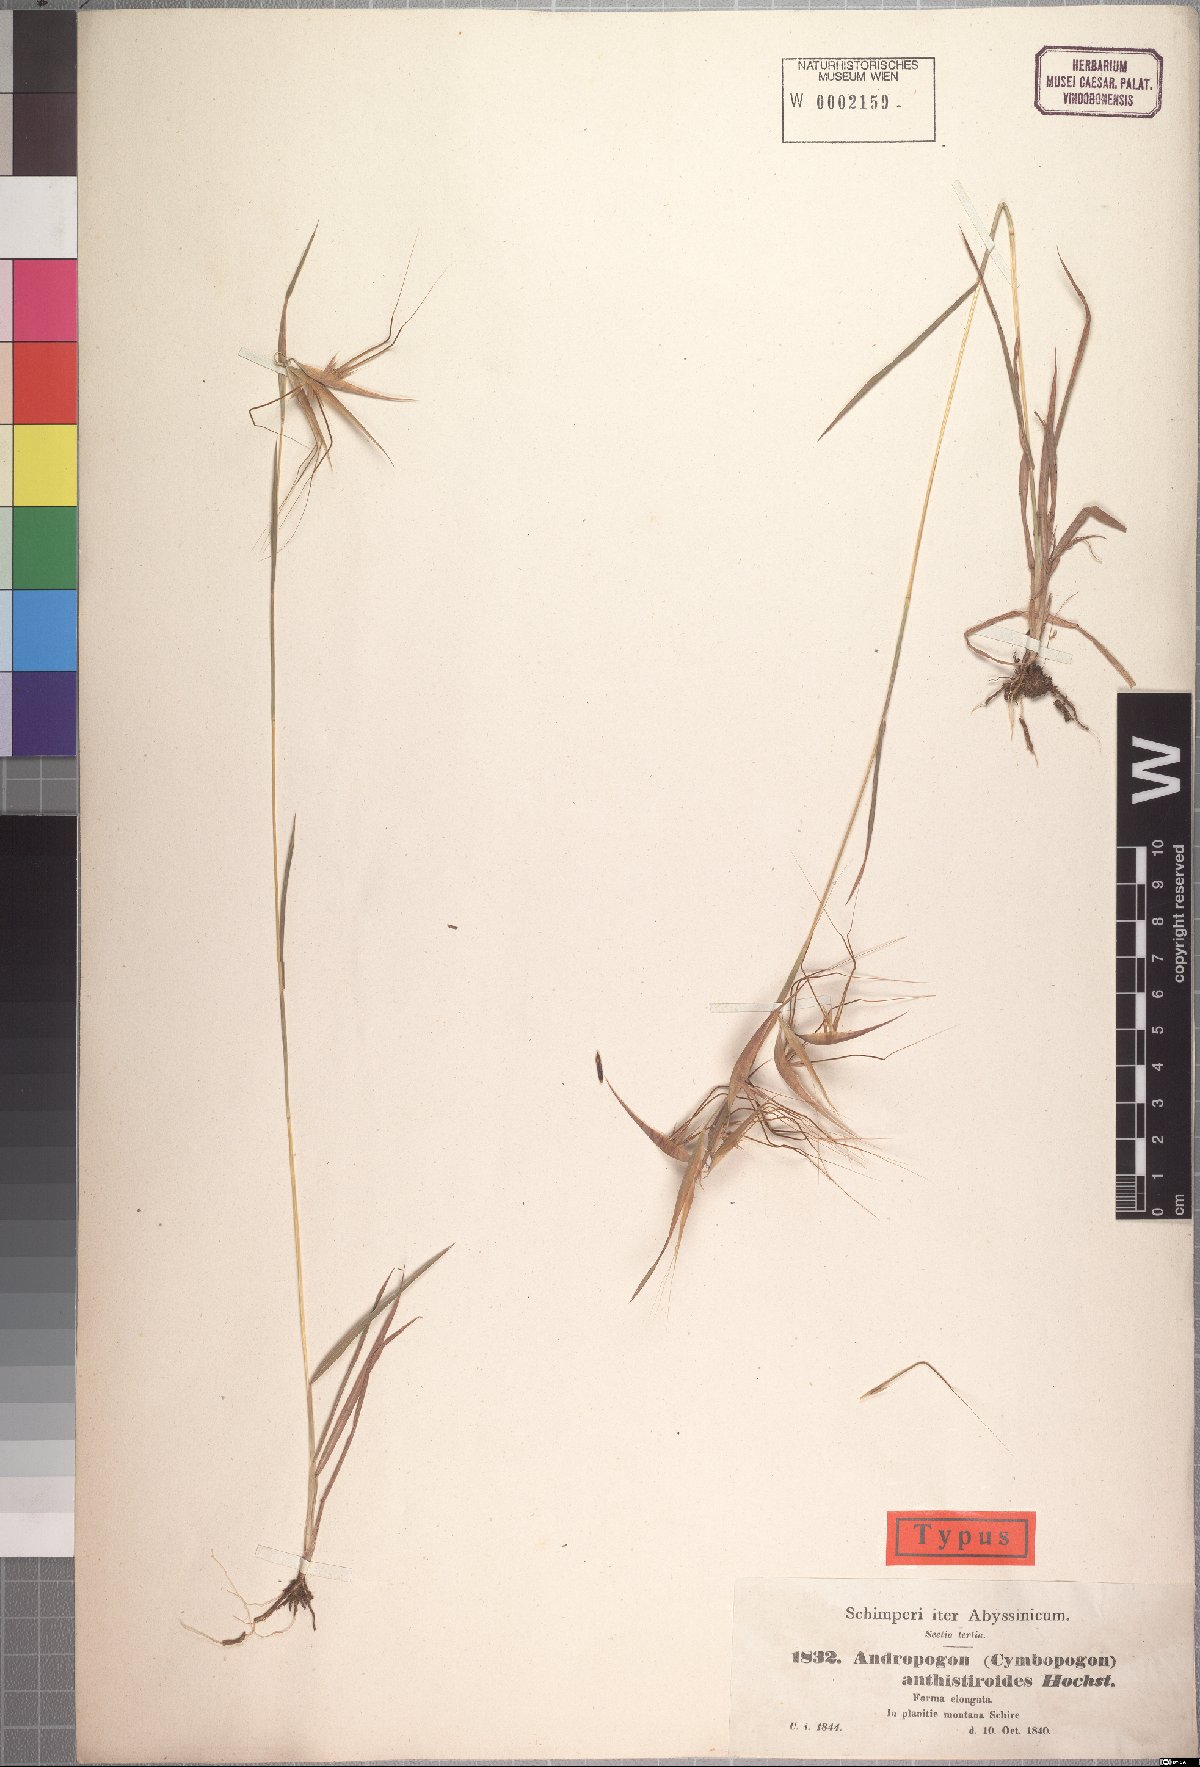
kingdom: Plantae
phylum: Tracheophyta
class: Liliopsida
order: Poales
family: Poaceae
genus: Hyparrhenia
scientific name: Hyparrhenia anthistirioides
